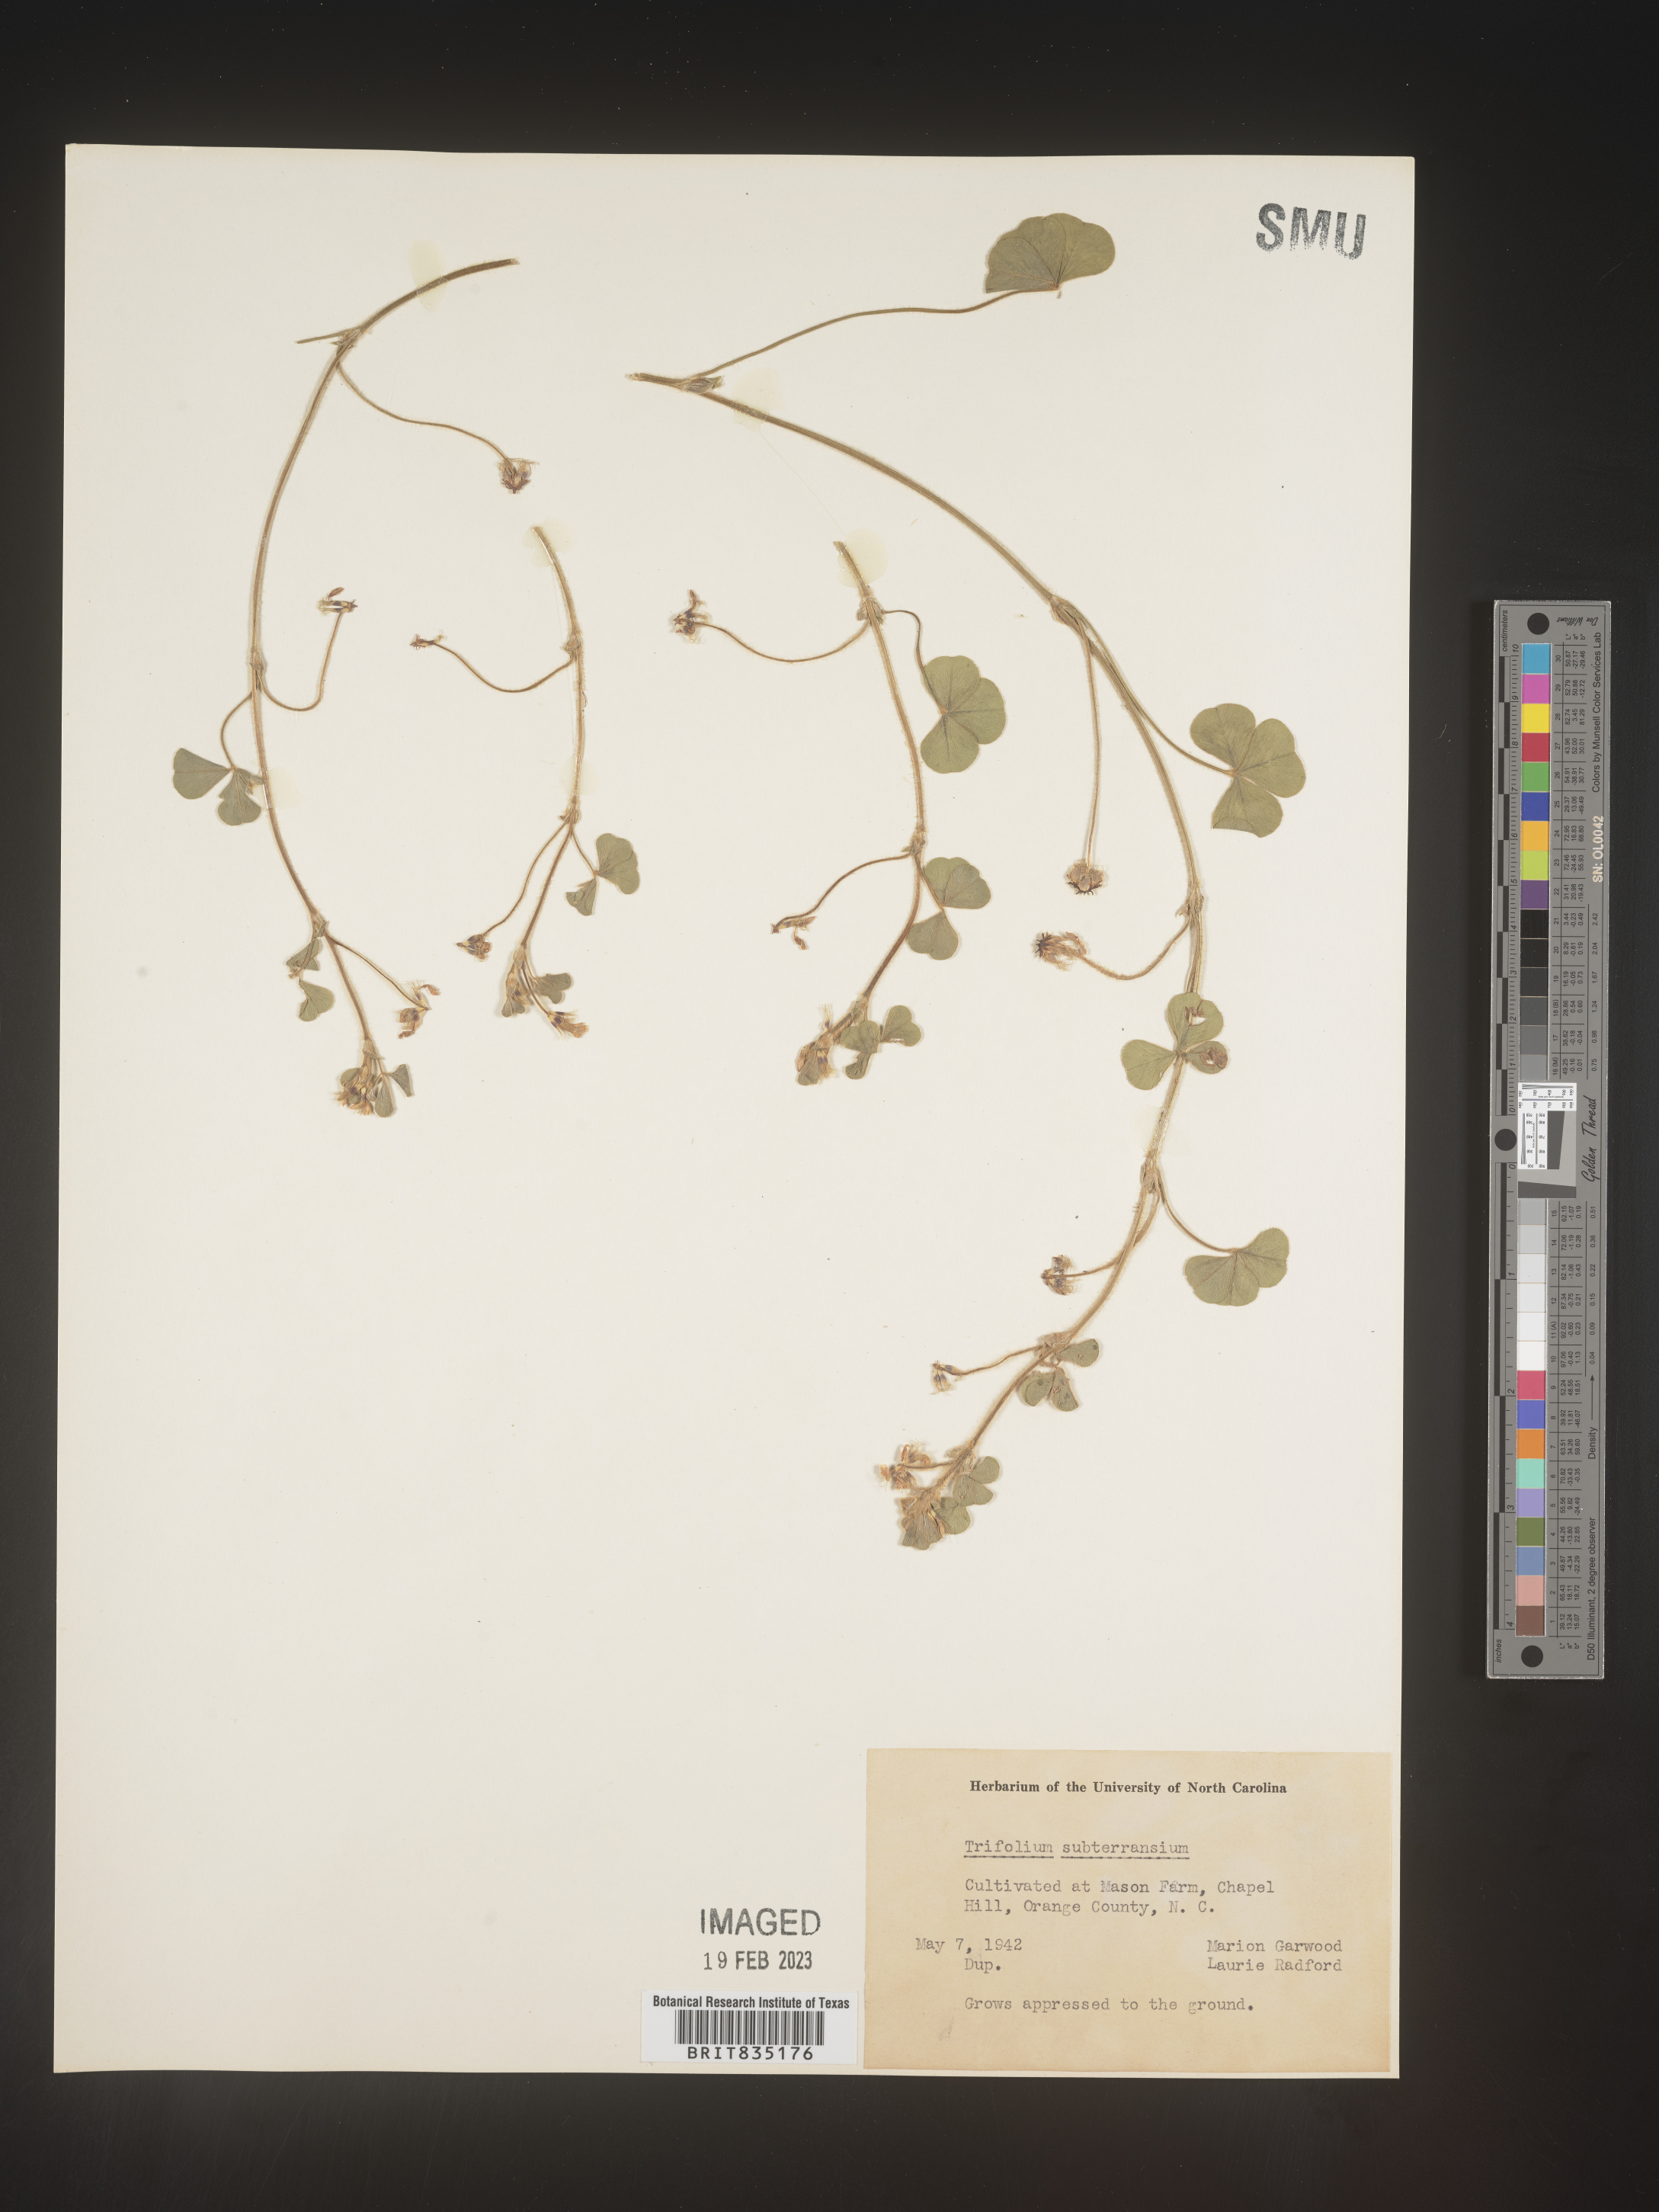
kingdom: Plantae
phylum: Tracheophyta
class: Magnoliopsida
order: Fabales
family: Fabaceae
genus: Trifolium
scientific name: Trifolium
